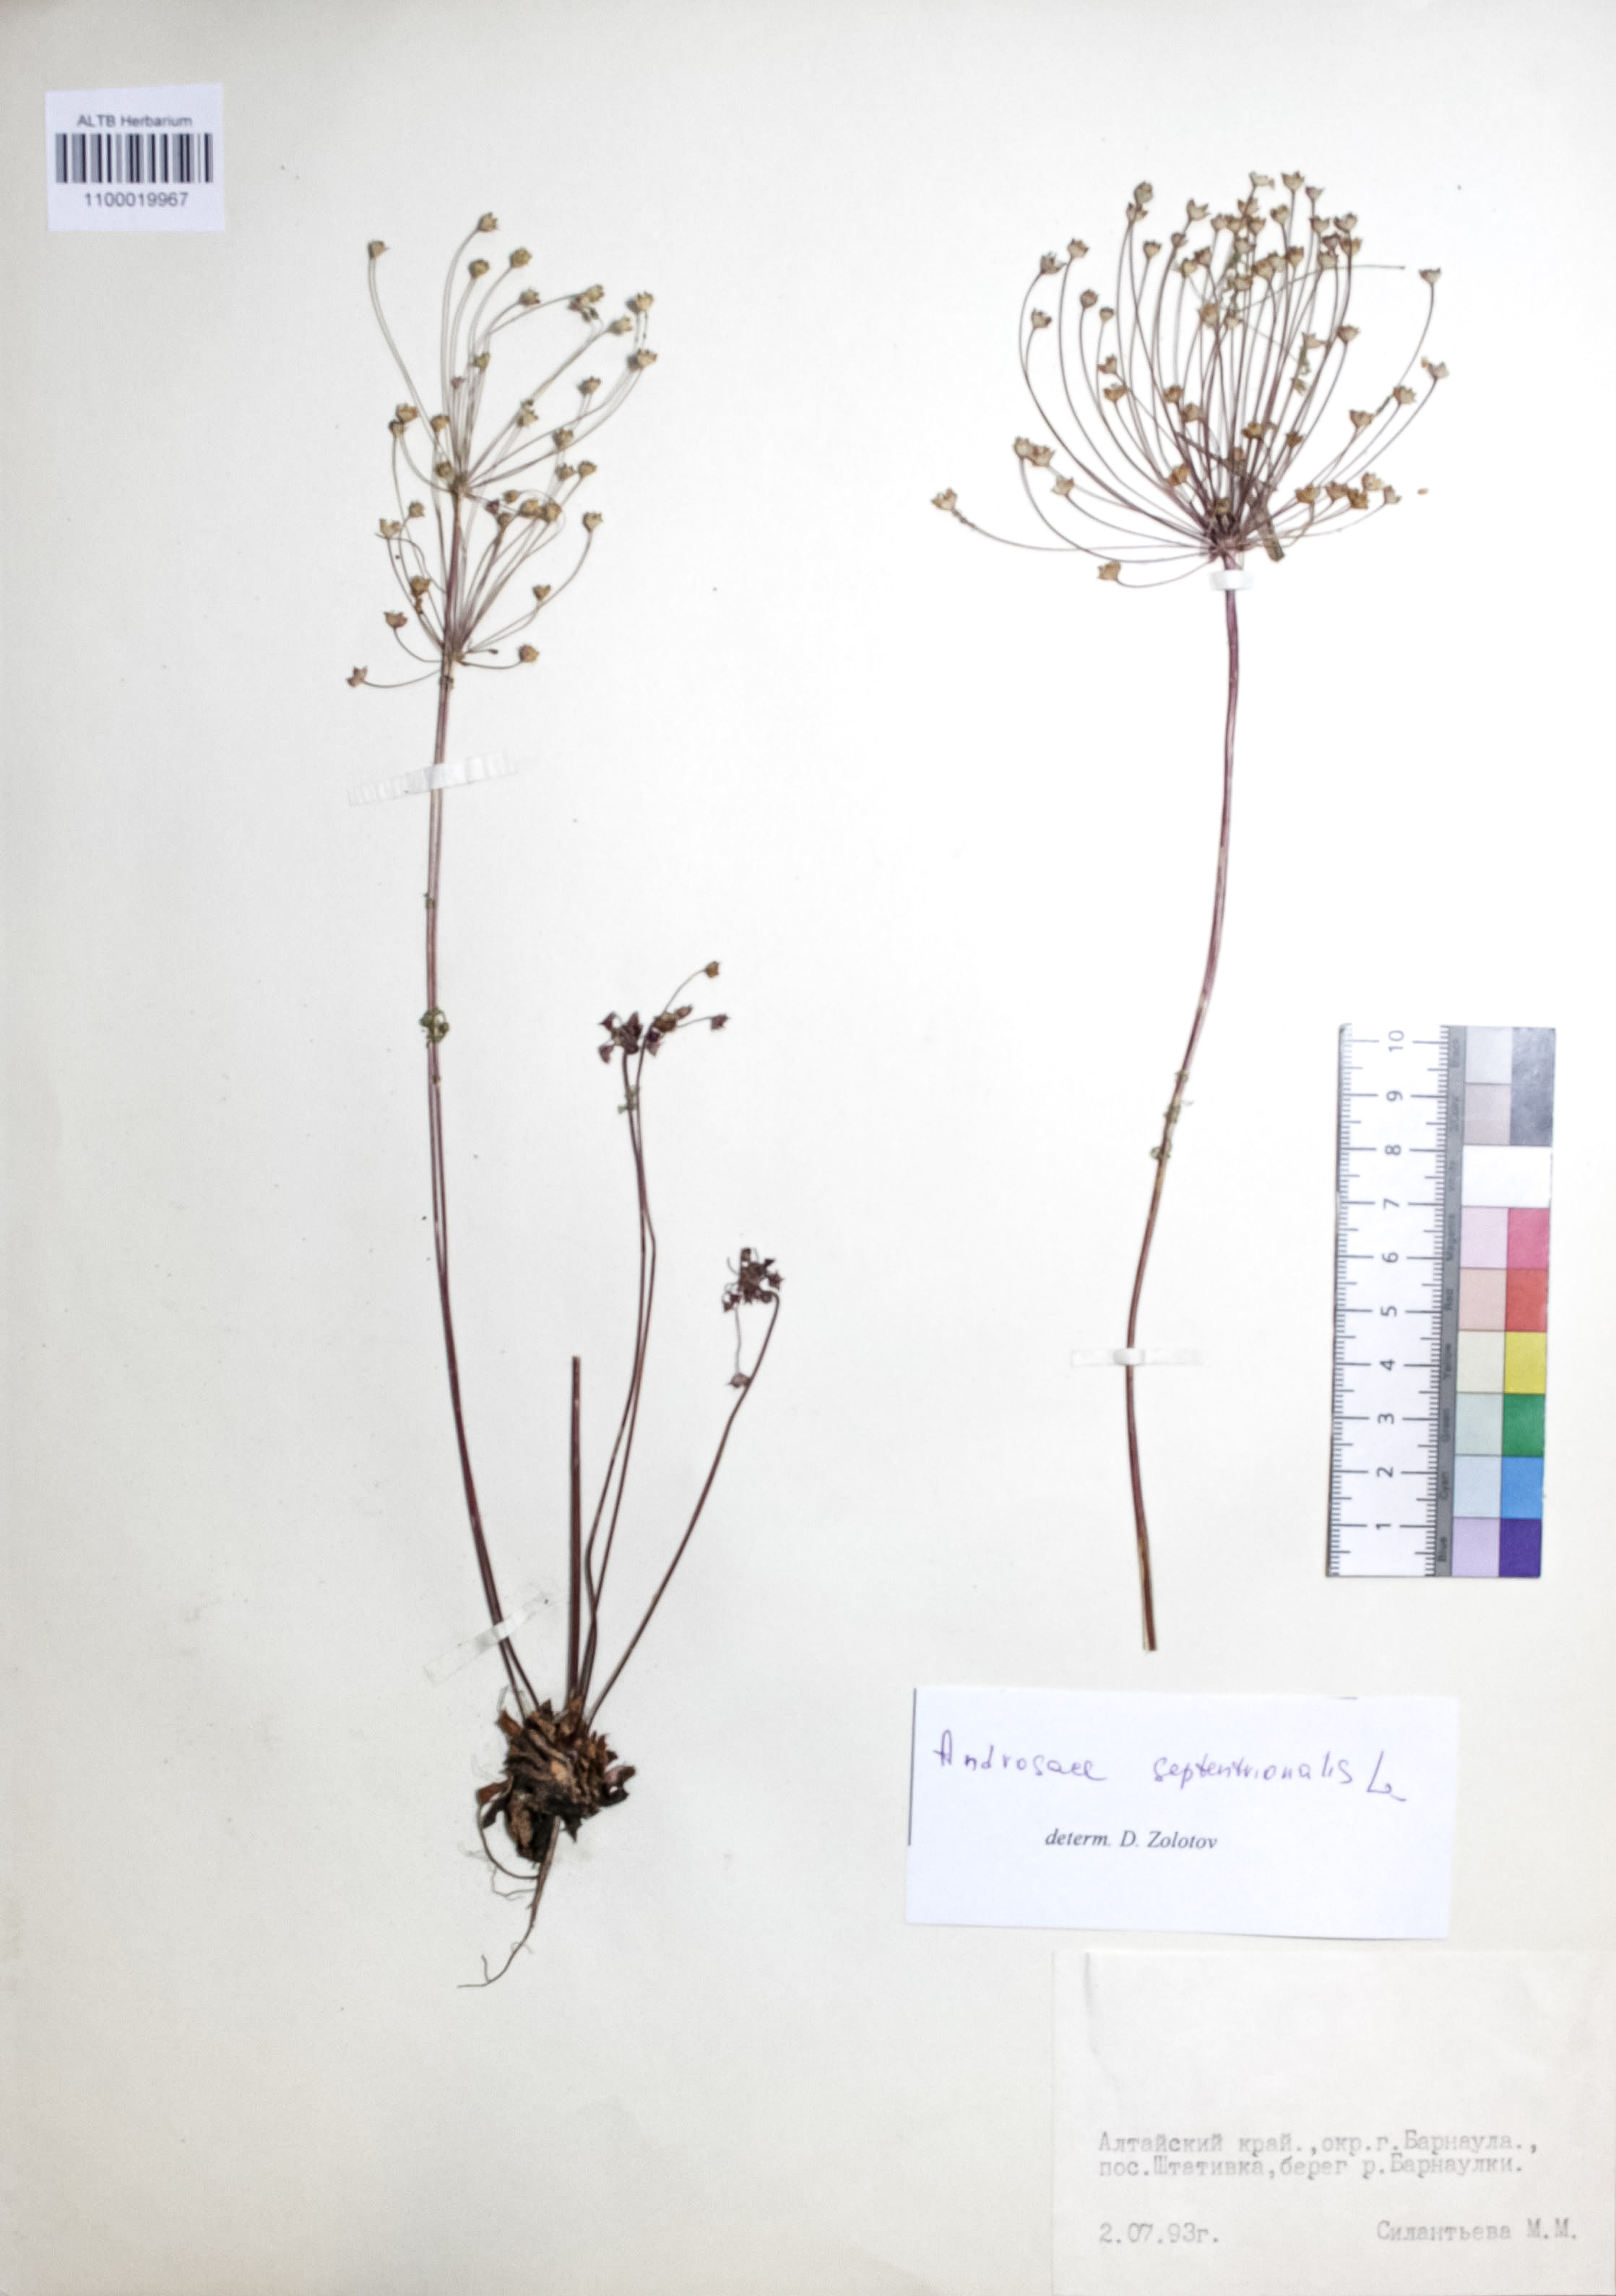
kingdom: Plantae
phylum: Tracheophyta
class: Magnoliopsida
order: Ericales
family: Primulaceae
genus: Androsace
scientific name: Androsace septentrionalis
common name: Hairy northern fairy-candelabra
